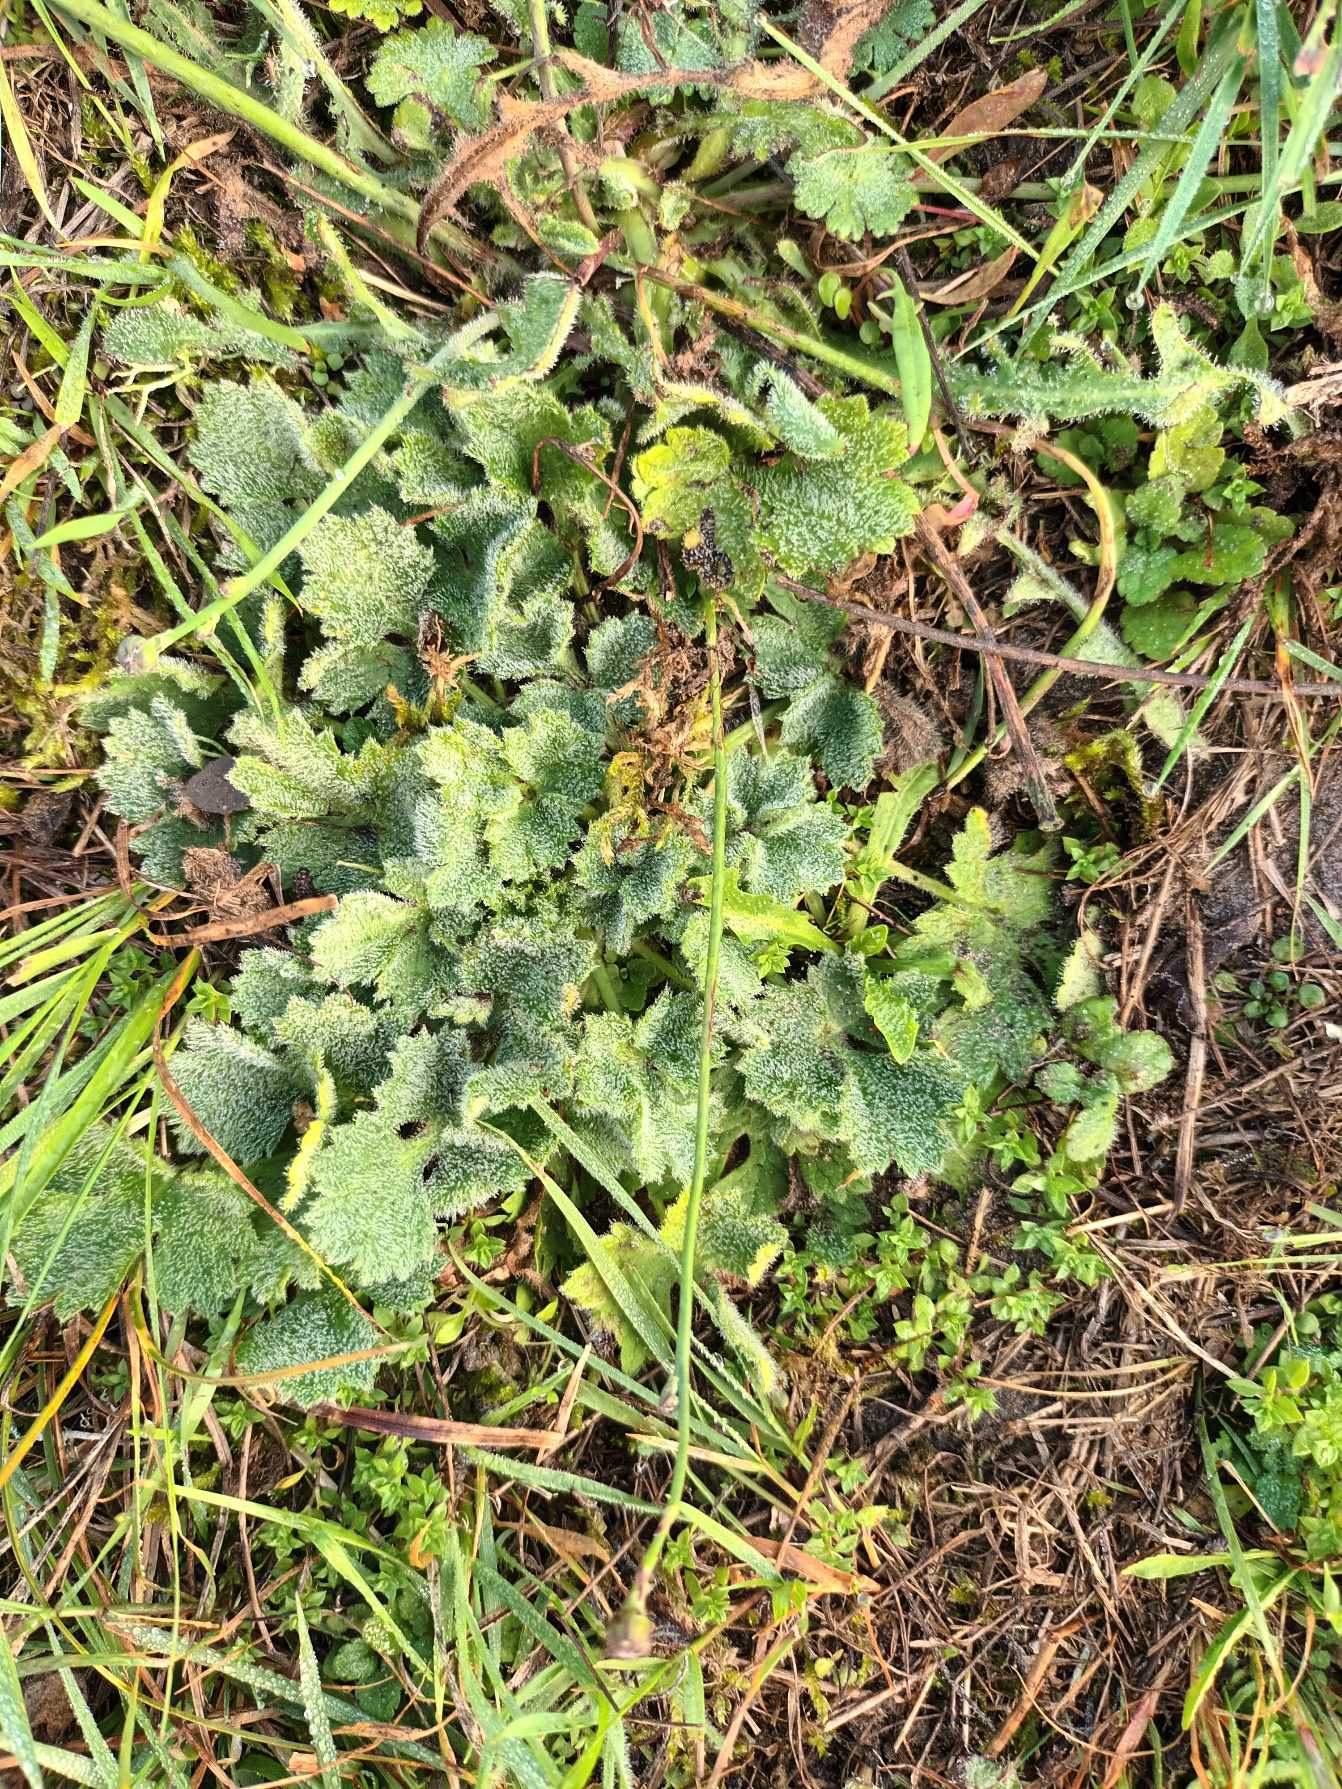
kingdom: Plantae
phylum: Tracheophyta
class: Magnoliopsida
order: Ranunculales
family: Ranunculaceae
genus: Ranunculus
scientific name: Ranunculus bulbosus
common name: Knold-ranunkel
